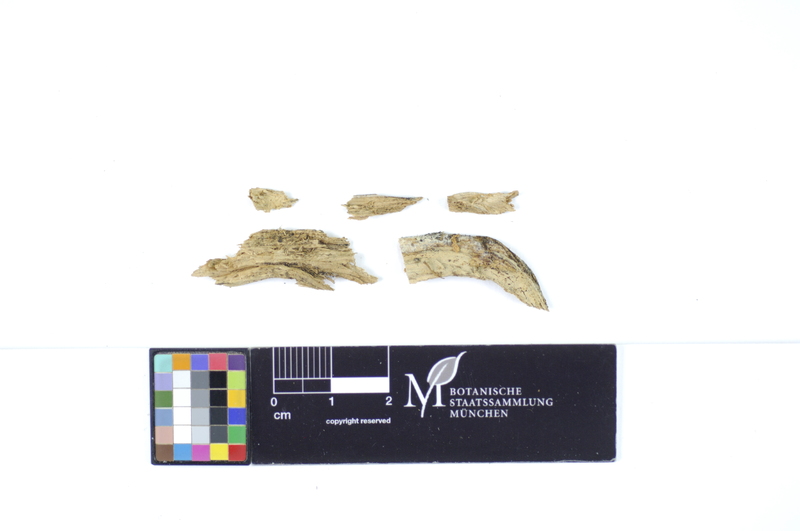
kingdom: Fungi
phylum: Basidiomycota
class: Agaricomycetes
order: Hymenochaetales
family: Hyphodontiaceae
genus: Hyphodontia
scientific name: Hyphodontia pallidula
